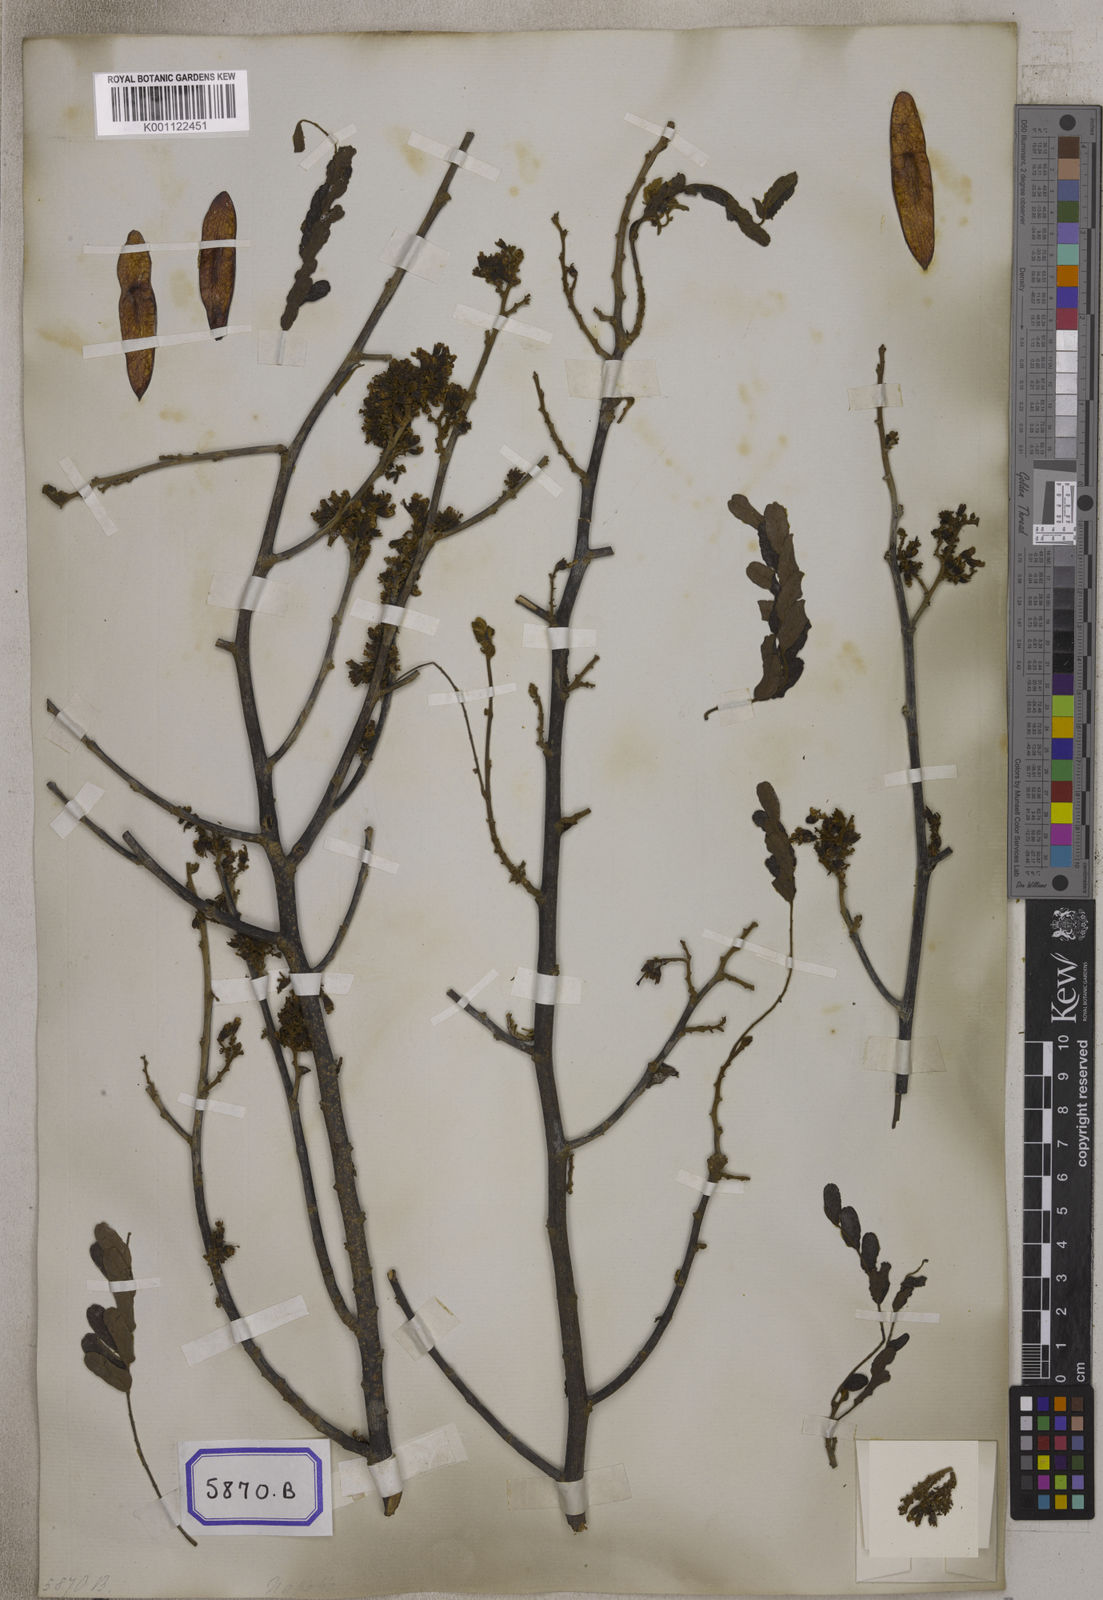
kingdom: Plantae
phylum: Tracheophyta
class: Magnoliopsida
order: Fabales
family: Fabaceae
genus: Dalbergia
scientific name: Dalbergia pinnata
